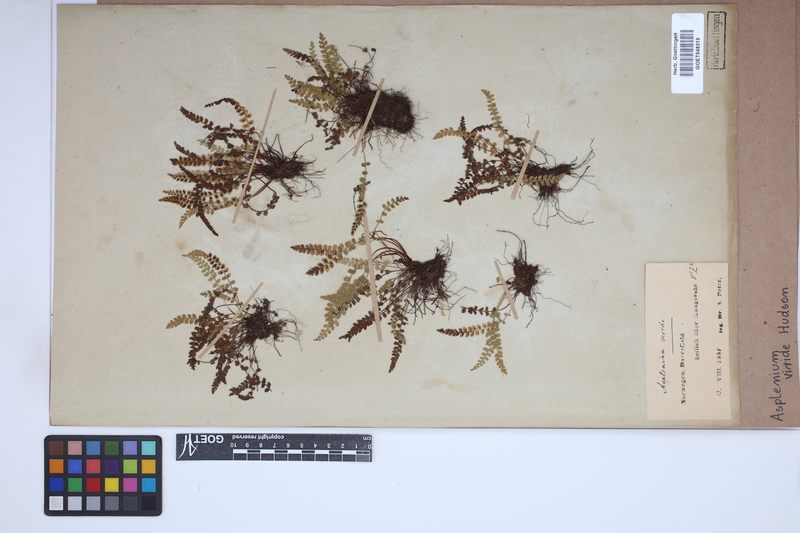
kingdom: Plantae
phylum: Tracheophyta
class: Polypodiopsida
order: Polypodiales
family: Aspleniaceae
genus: Asplenium
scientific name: Asplenium viride
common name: Green spleenwort
